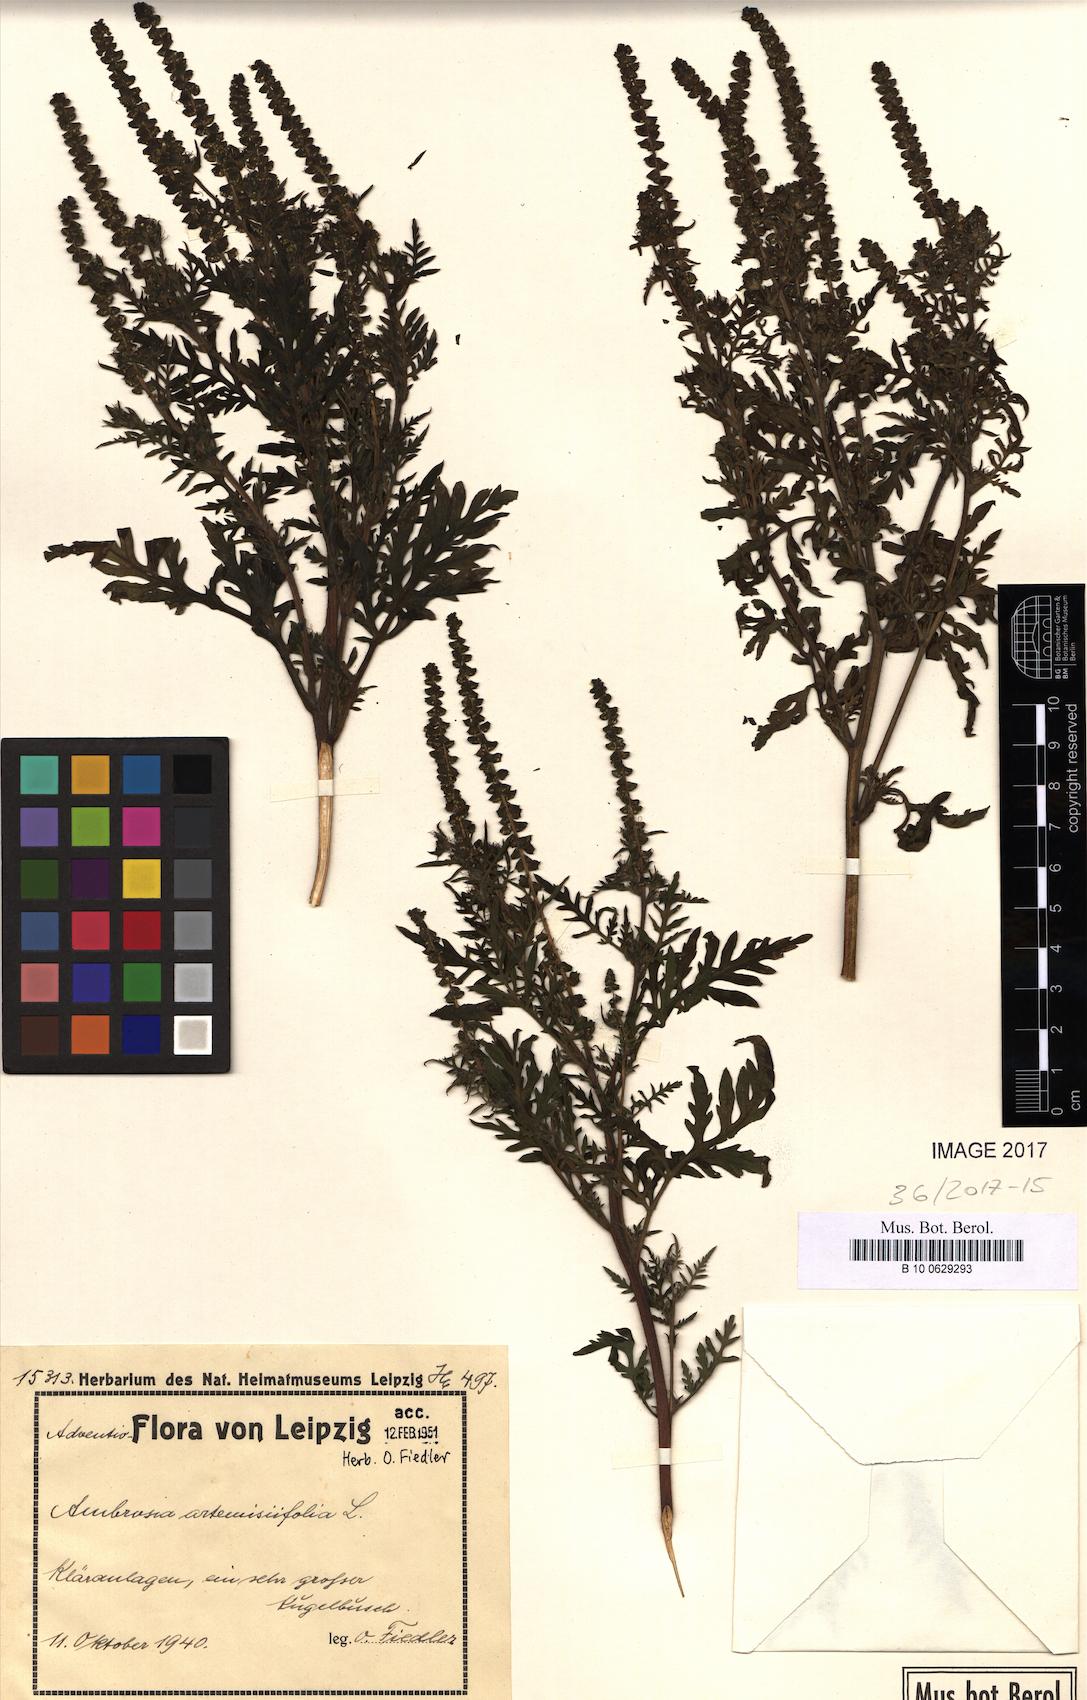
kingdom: Plantae
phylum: Tracheophyta
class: Magnoliopsida
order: Asterales
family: Asteraceae
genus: Ambrosia
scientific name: Ambrosia artemisiifolia
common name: Annual ragweed
